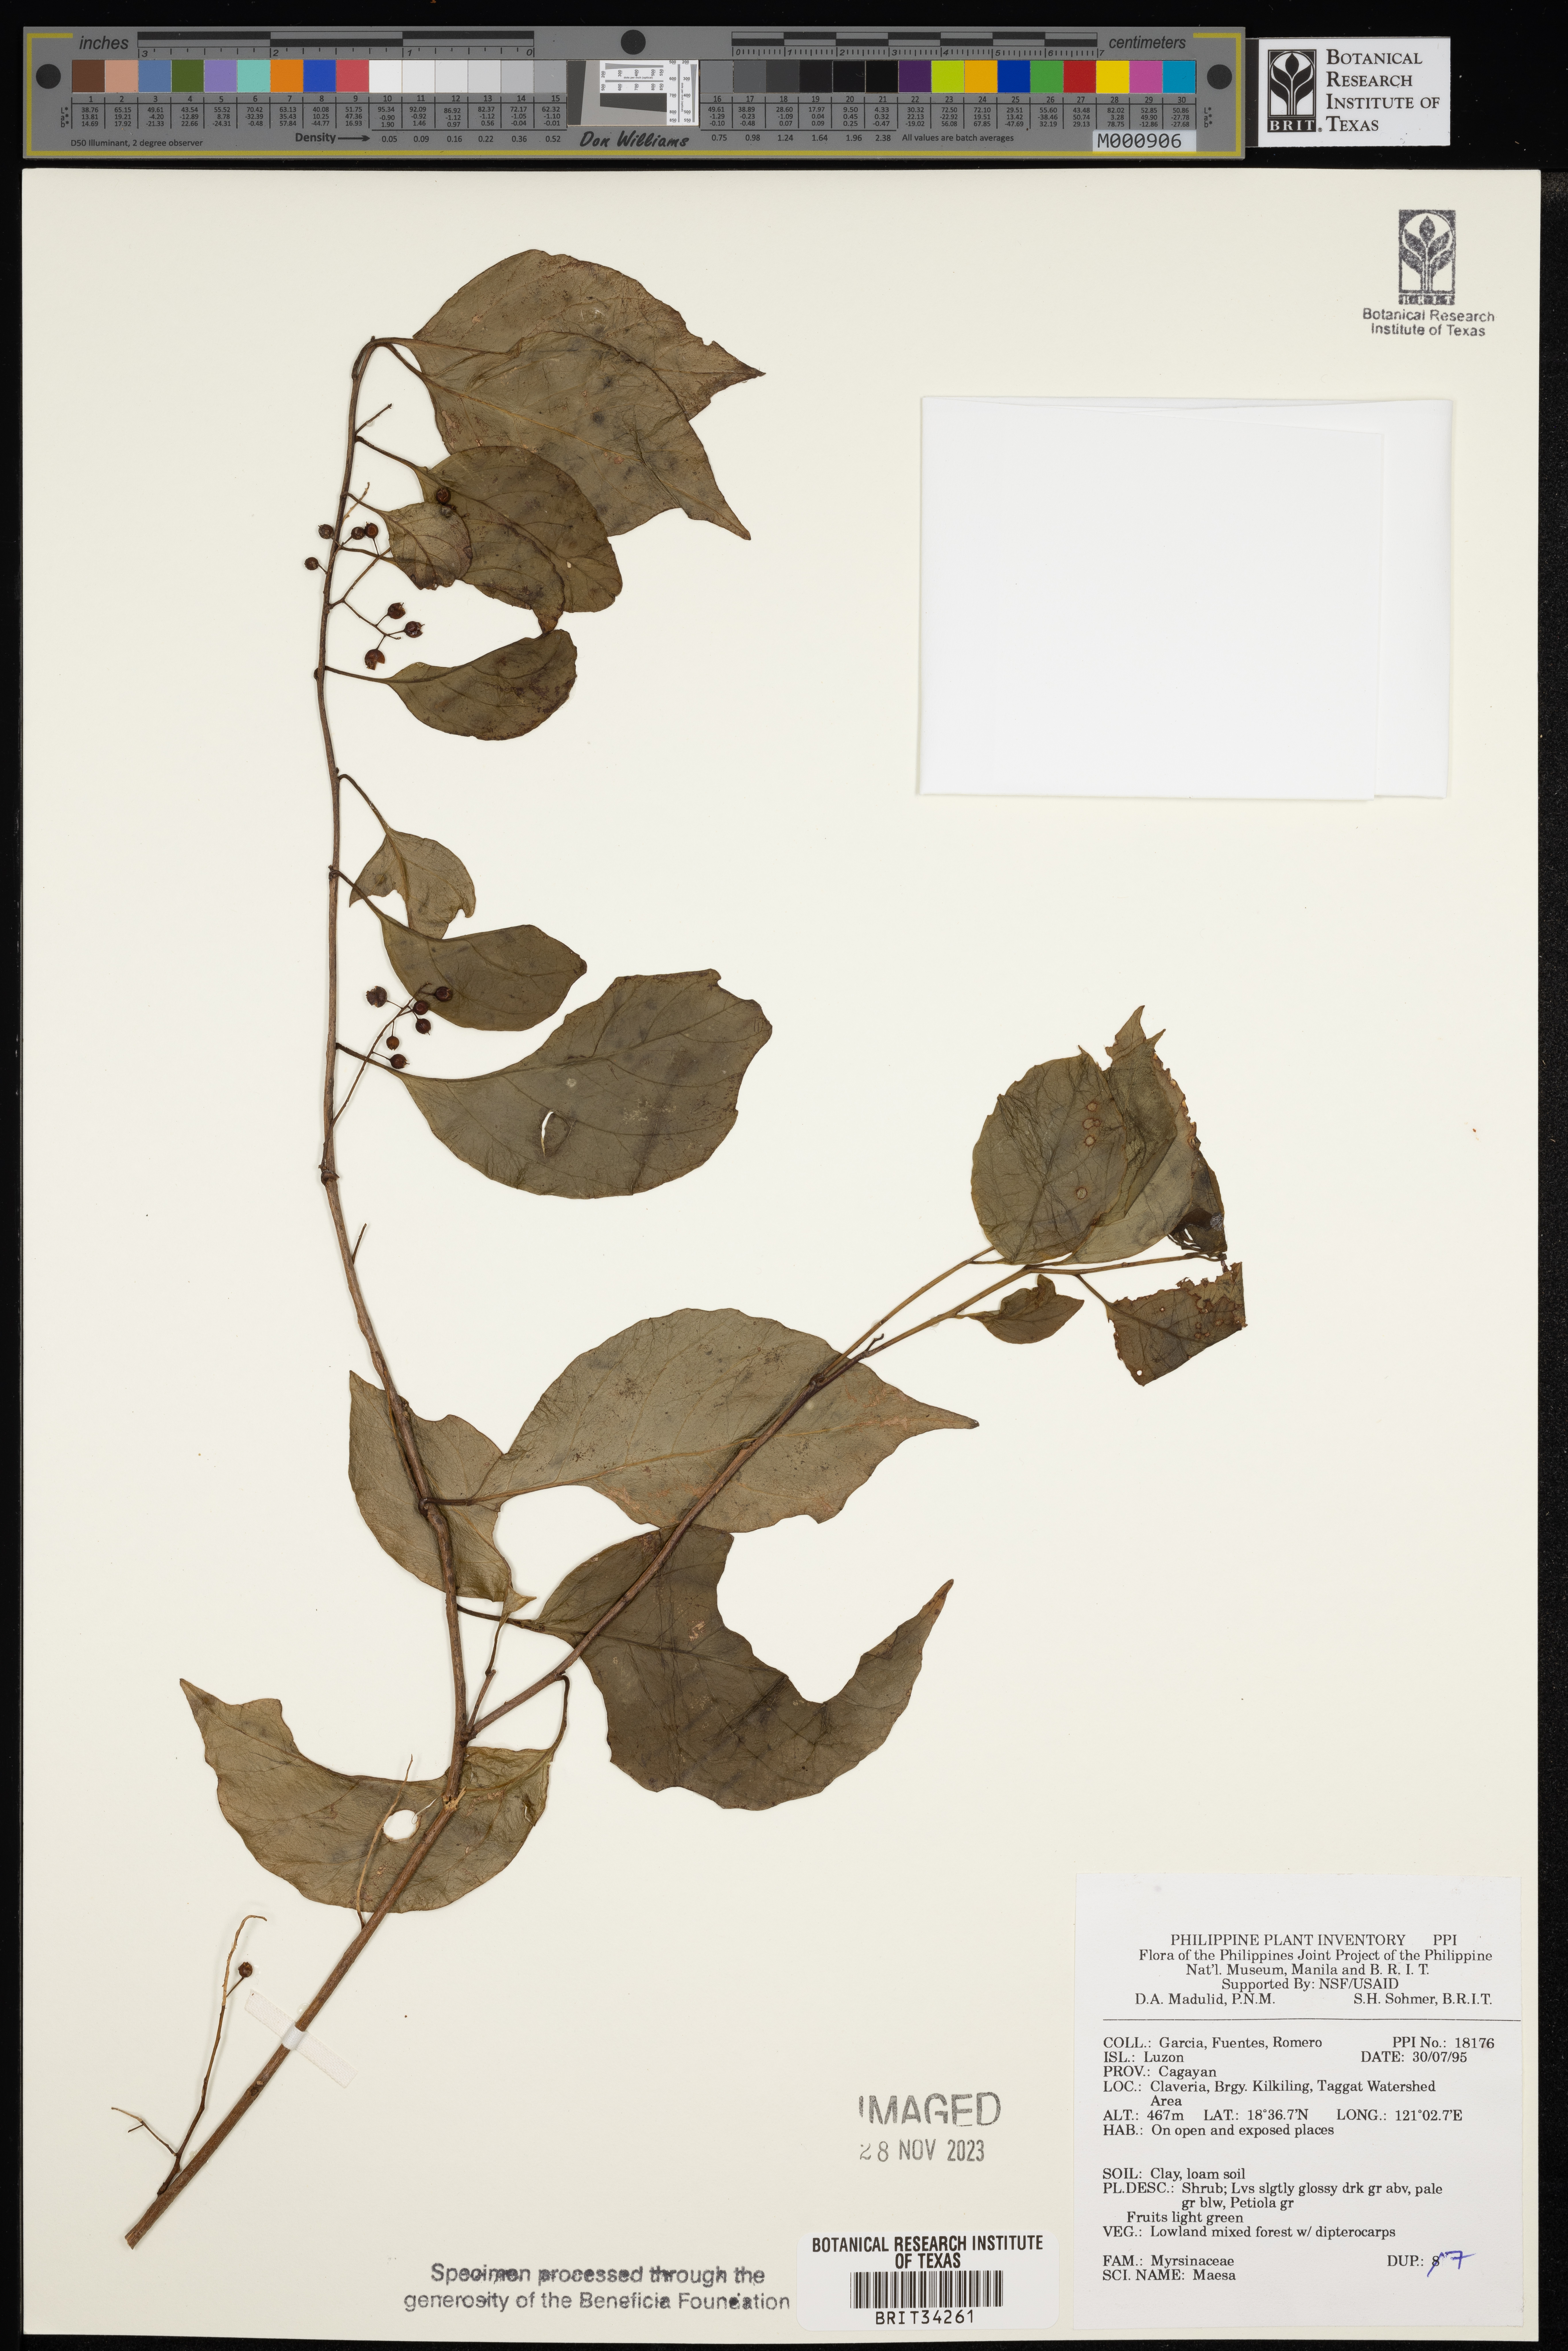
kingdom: Plantae
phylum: Tracheophyta
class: Magnoliopsida
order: Ericales
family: Primulaceae
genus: Maesa
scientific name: Maesa
